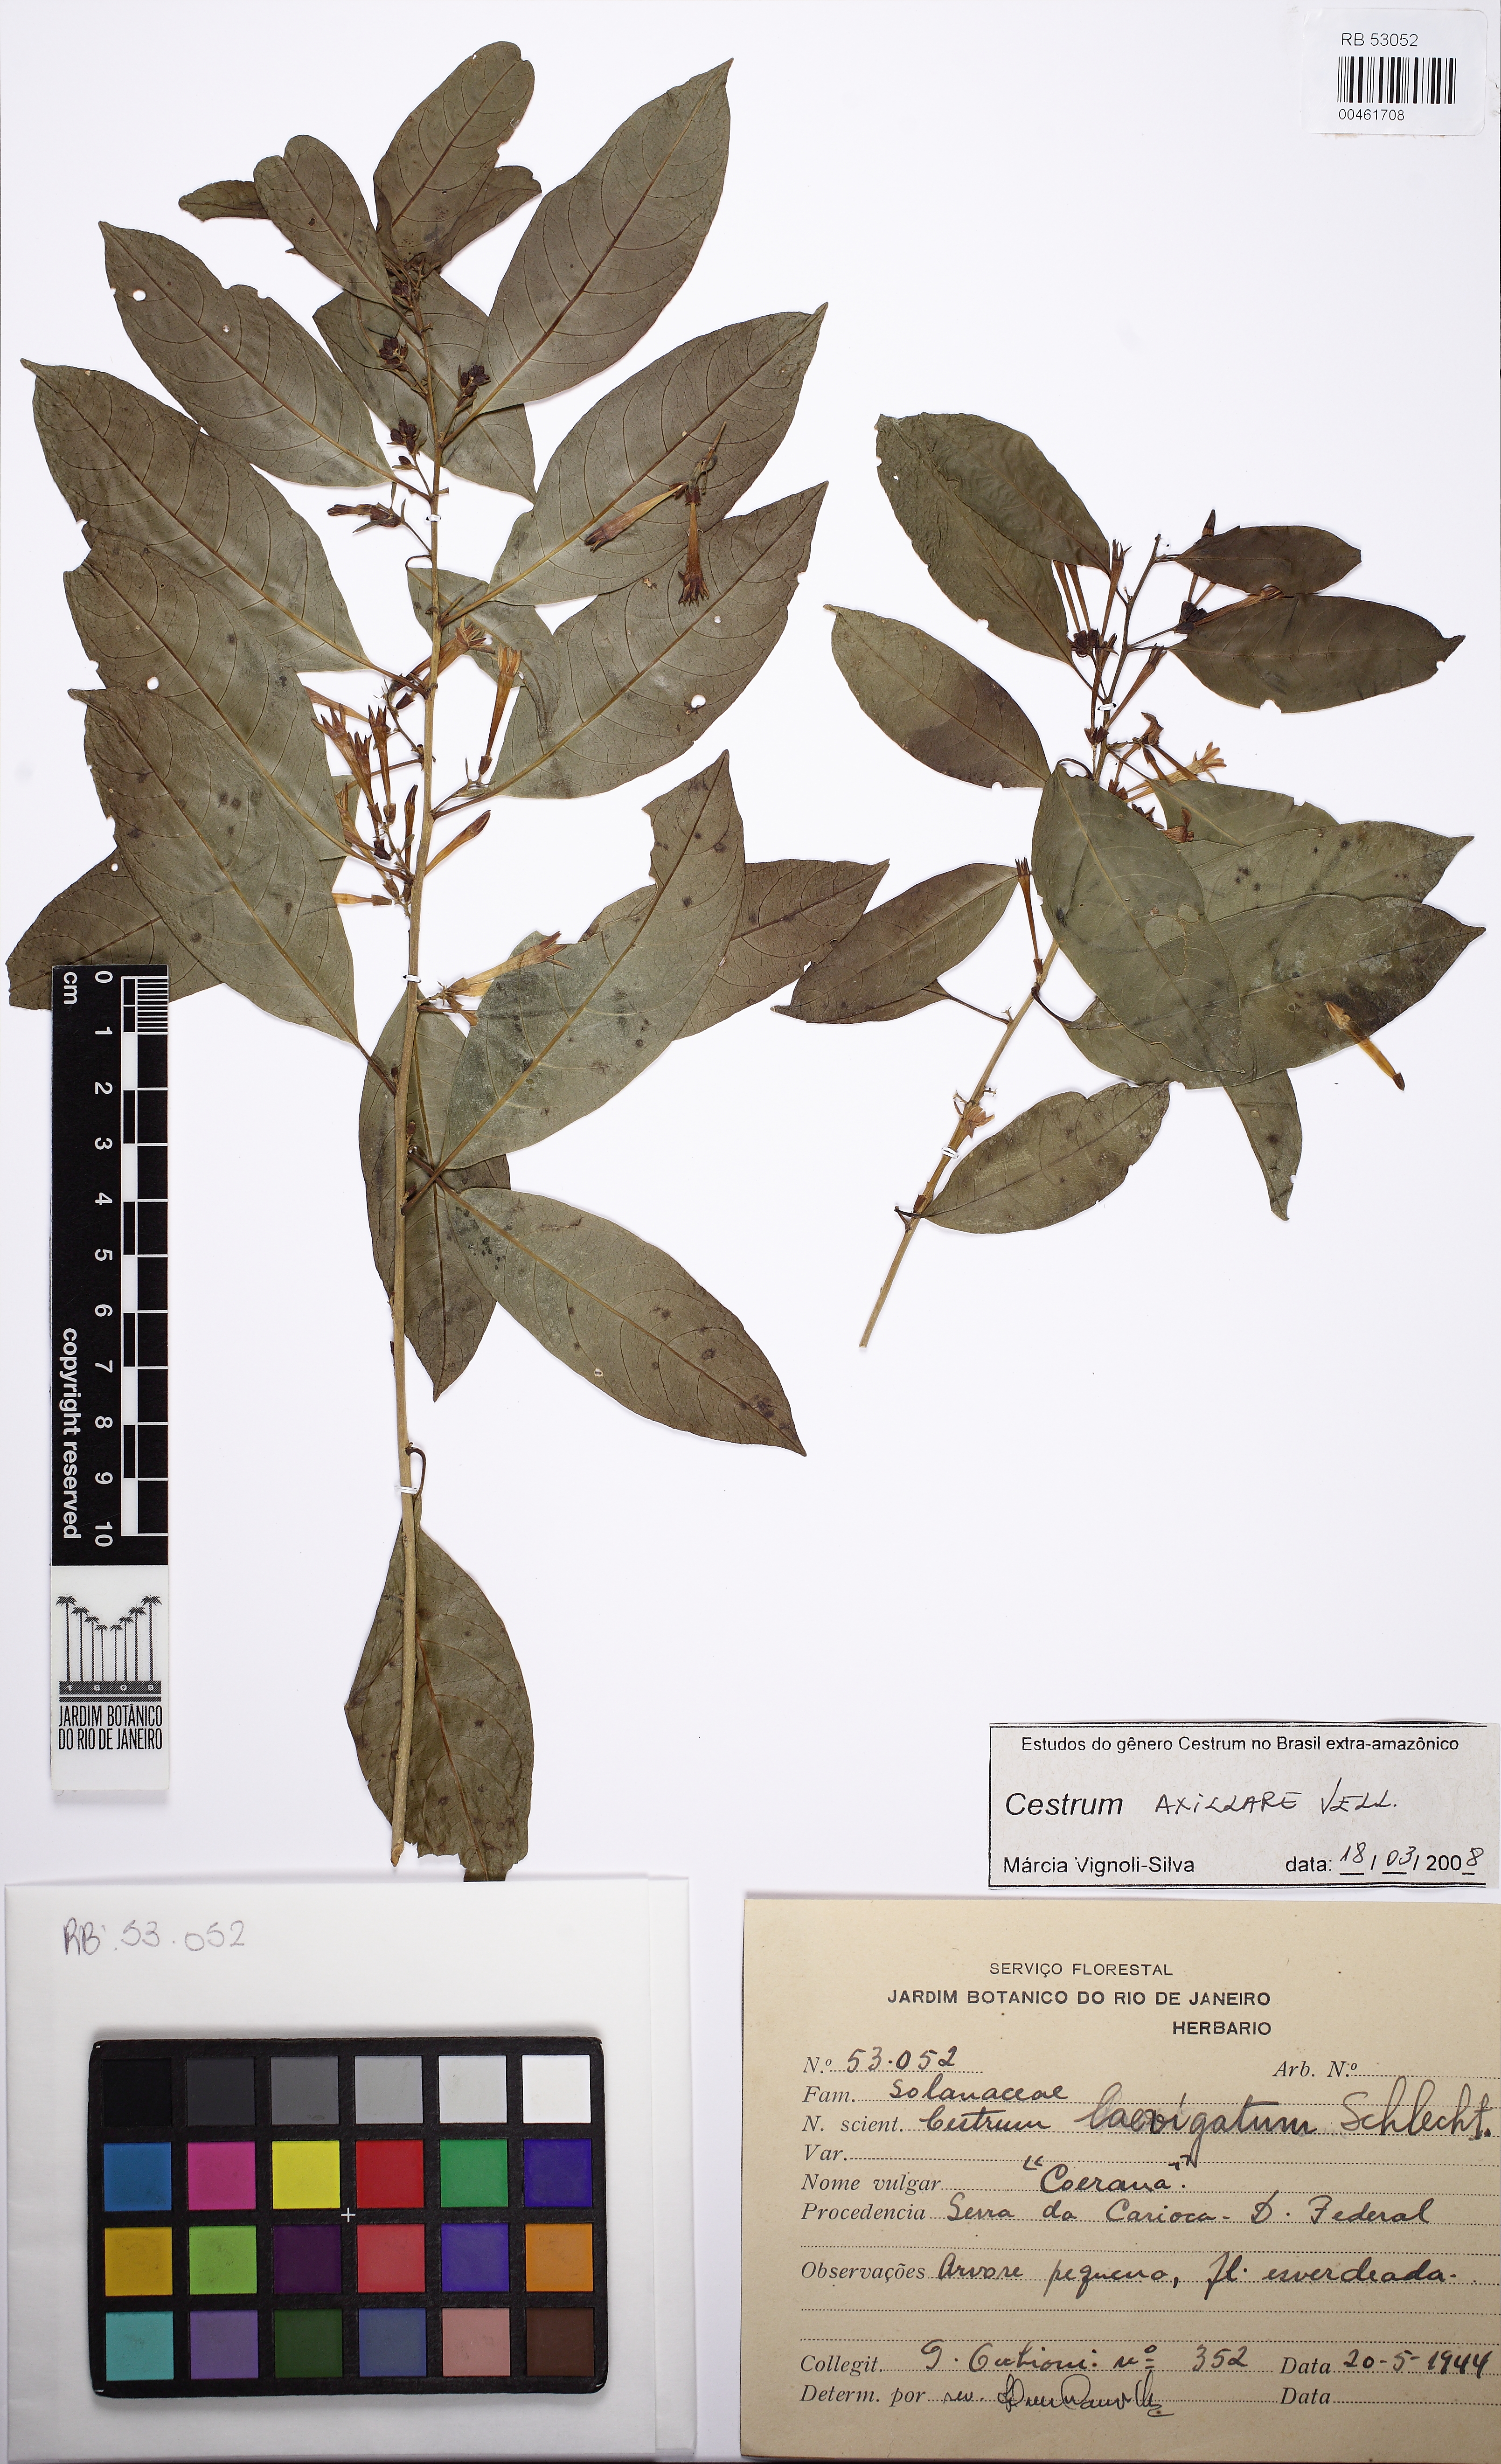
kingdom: Plantae
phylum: Tracheophyta
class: Magnoliopsida
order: Solanales
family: Solanaceae
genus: Cestrum
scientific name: Cestrum laevigatum
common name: Inkberry
